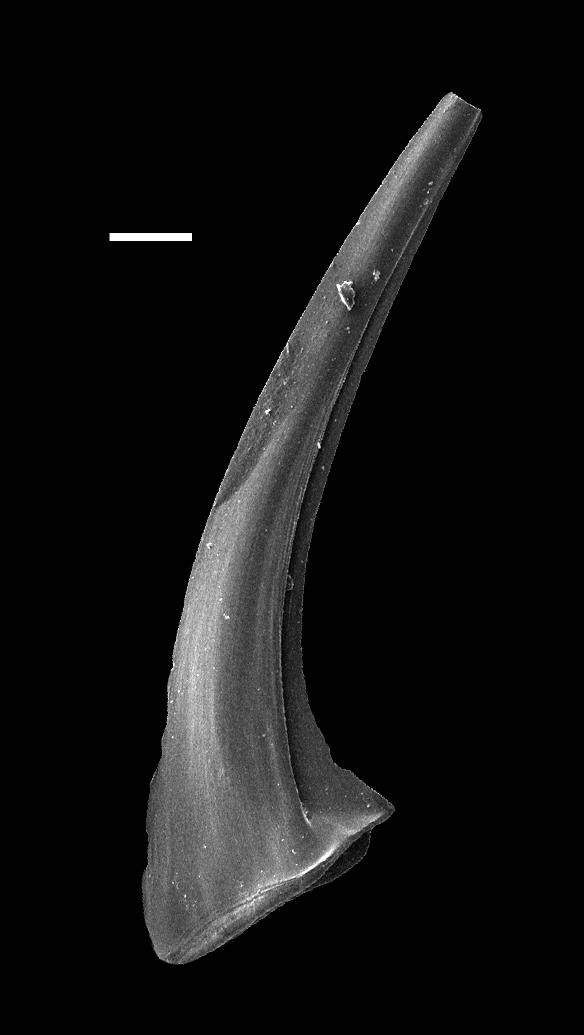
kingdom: Animalia
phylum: Chordata
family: Dapsilodontidae
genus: Dapsilodus
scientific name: Dapsilodus
